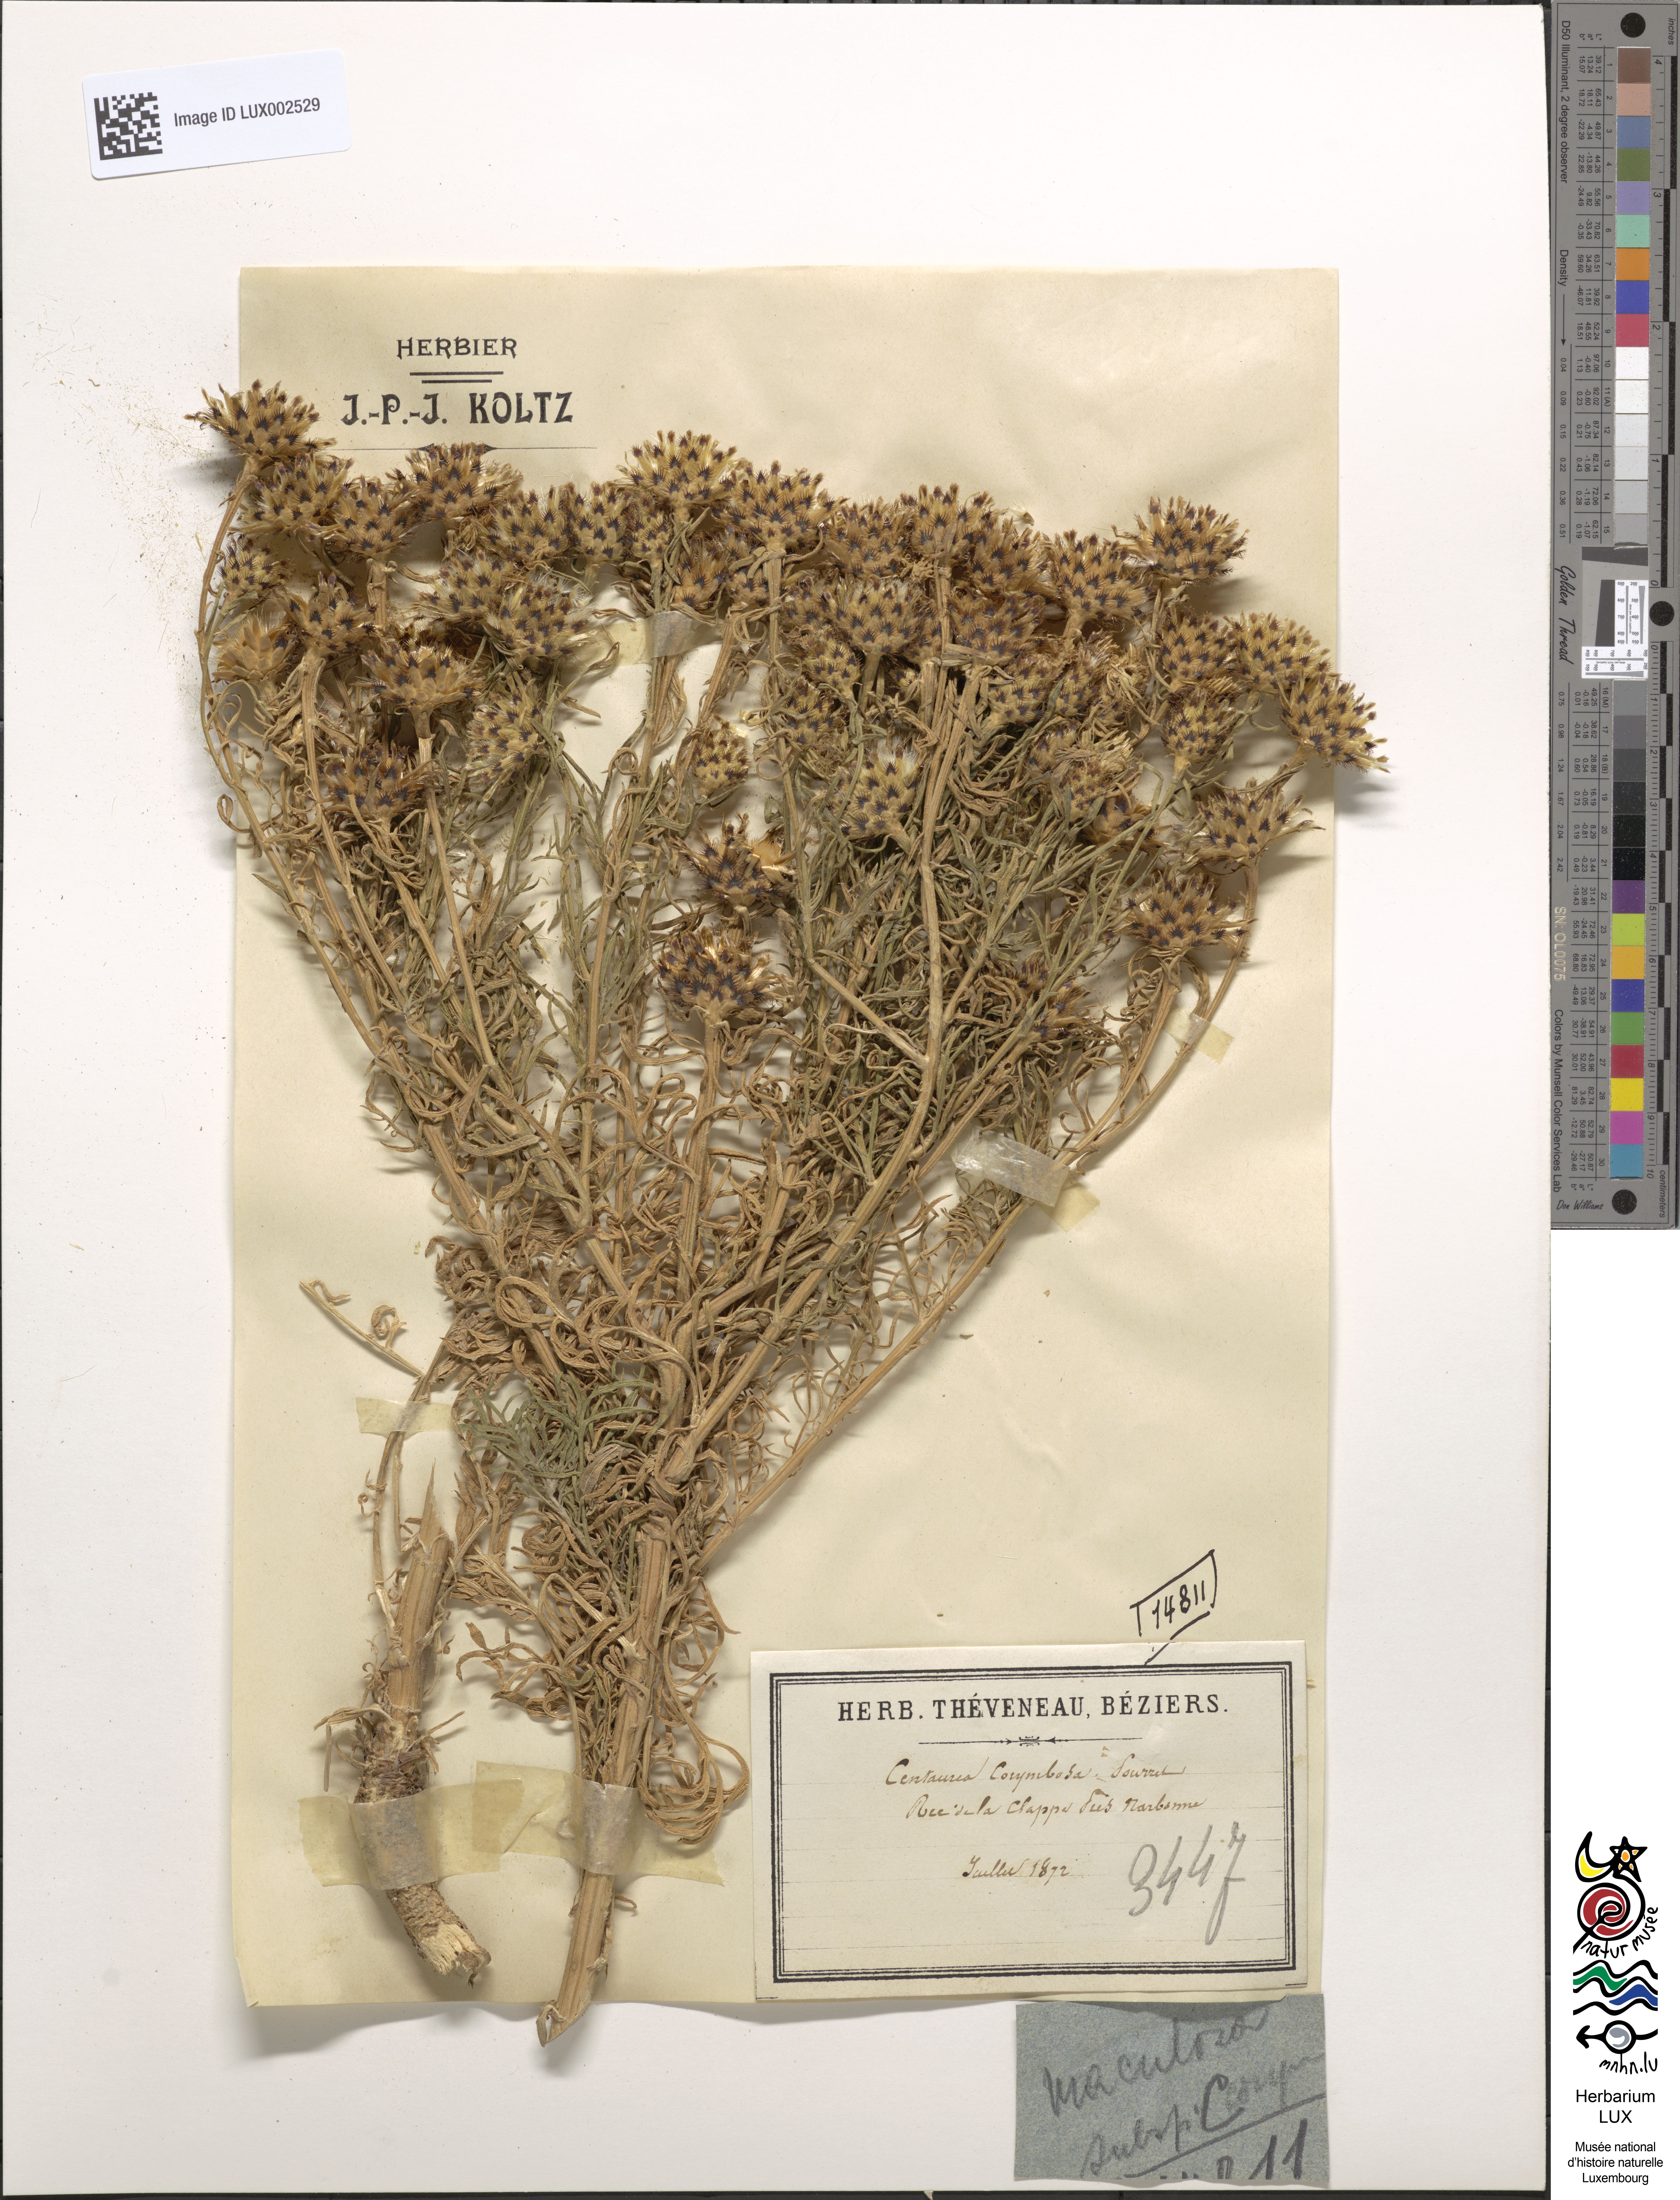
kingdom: Plantae
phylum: Tracheophyta
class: Magnoliopsida
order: Asterales
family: Asteraceae
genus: Centaurea
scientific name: Centaurea corymbosa
